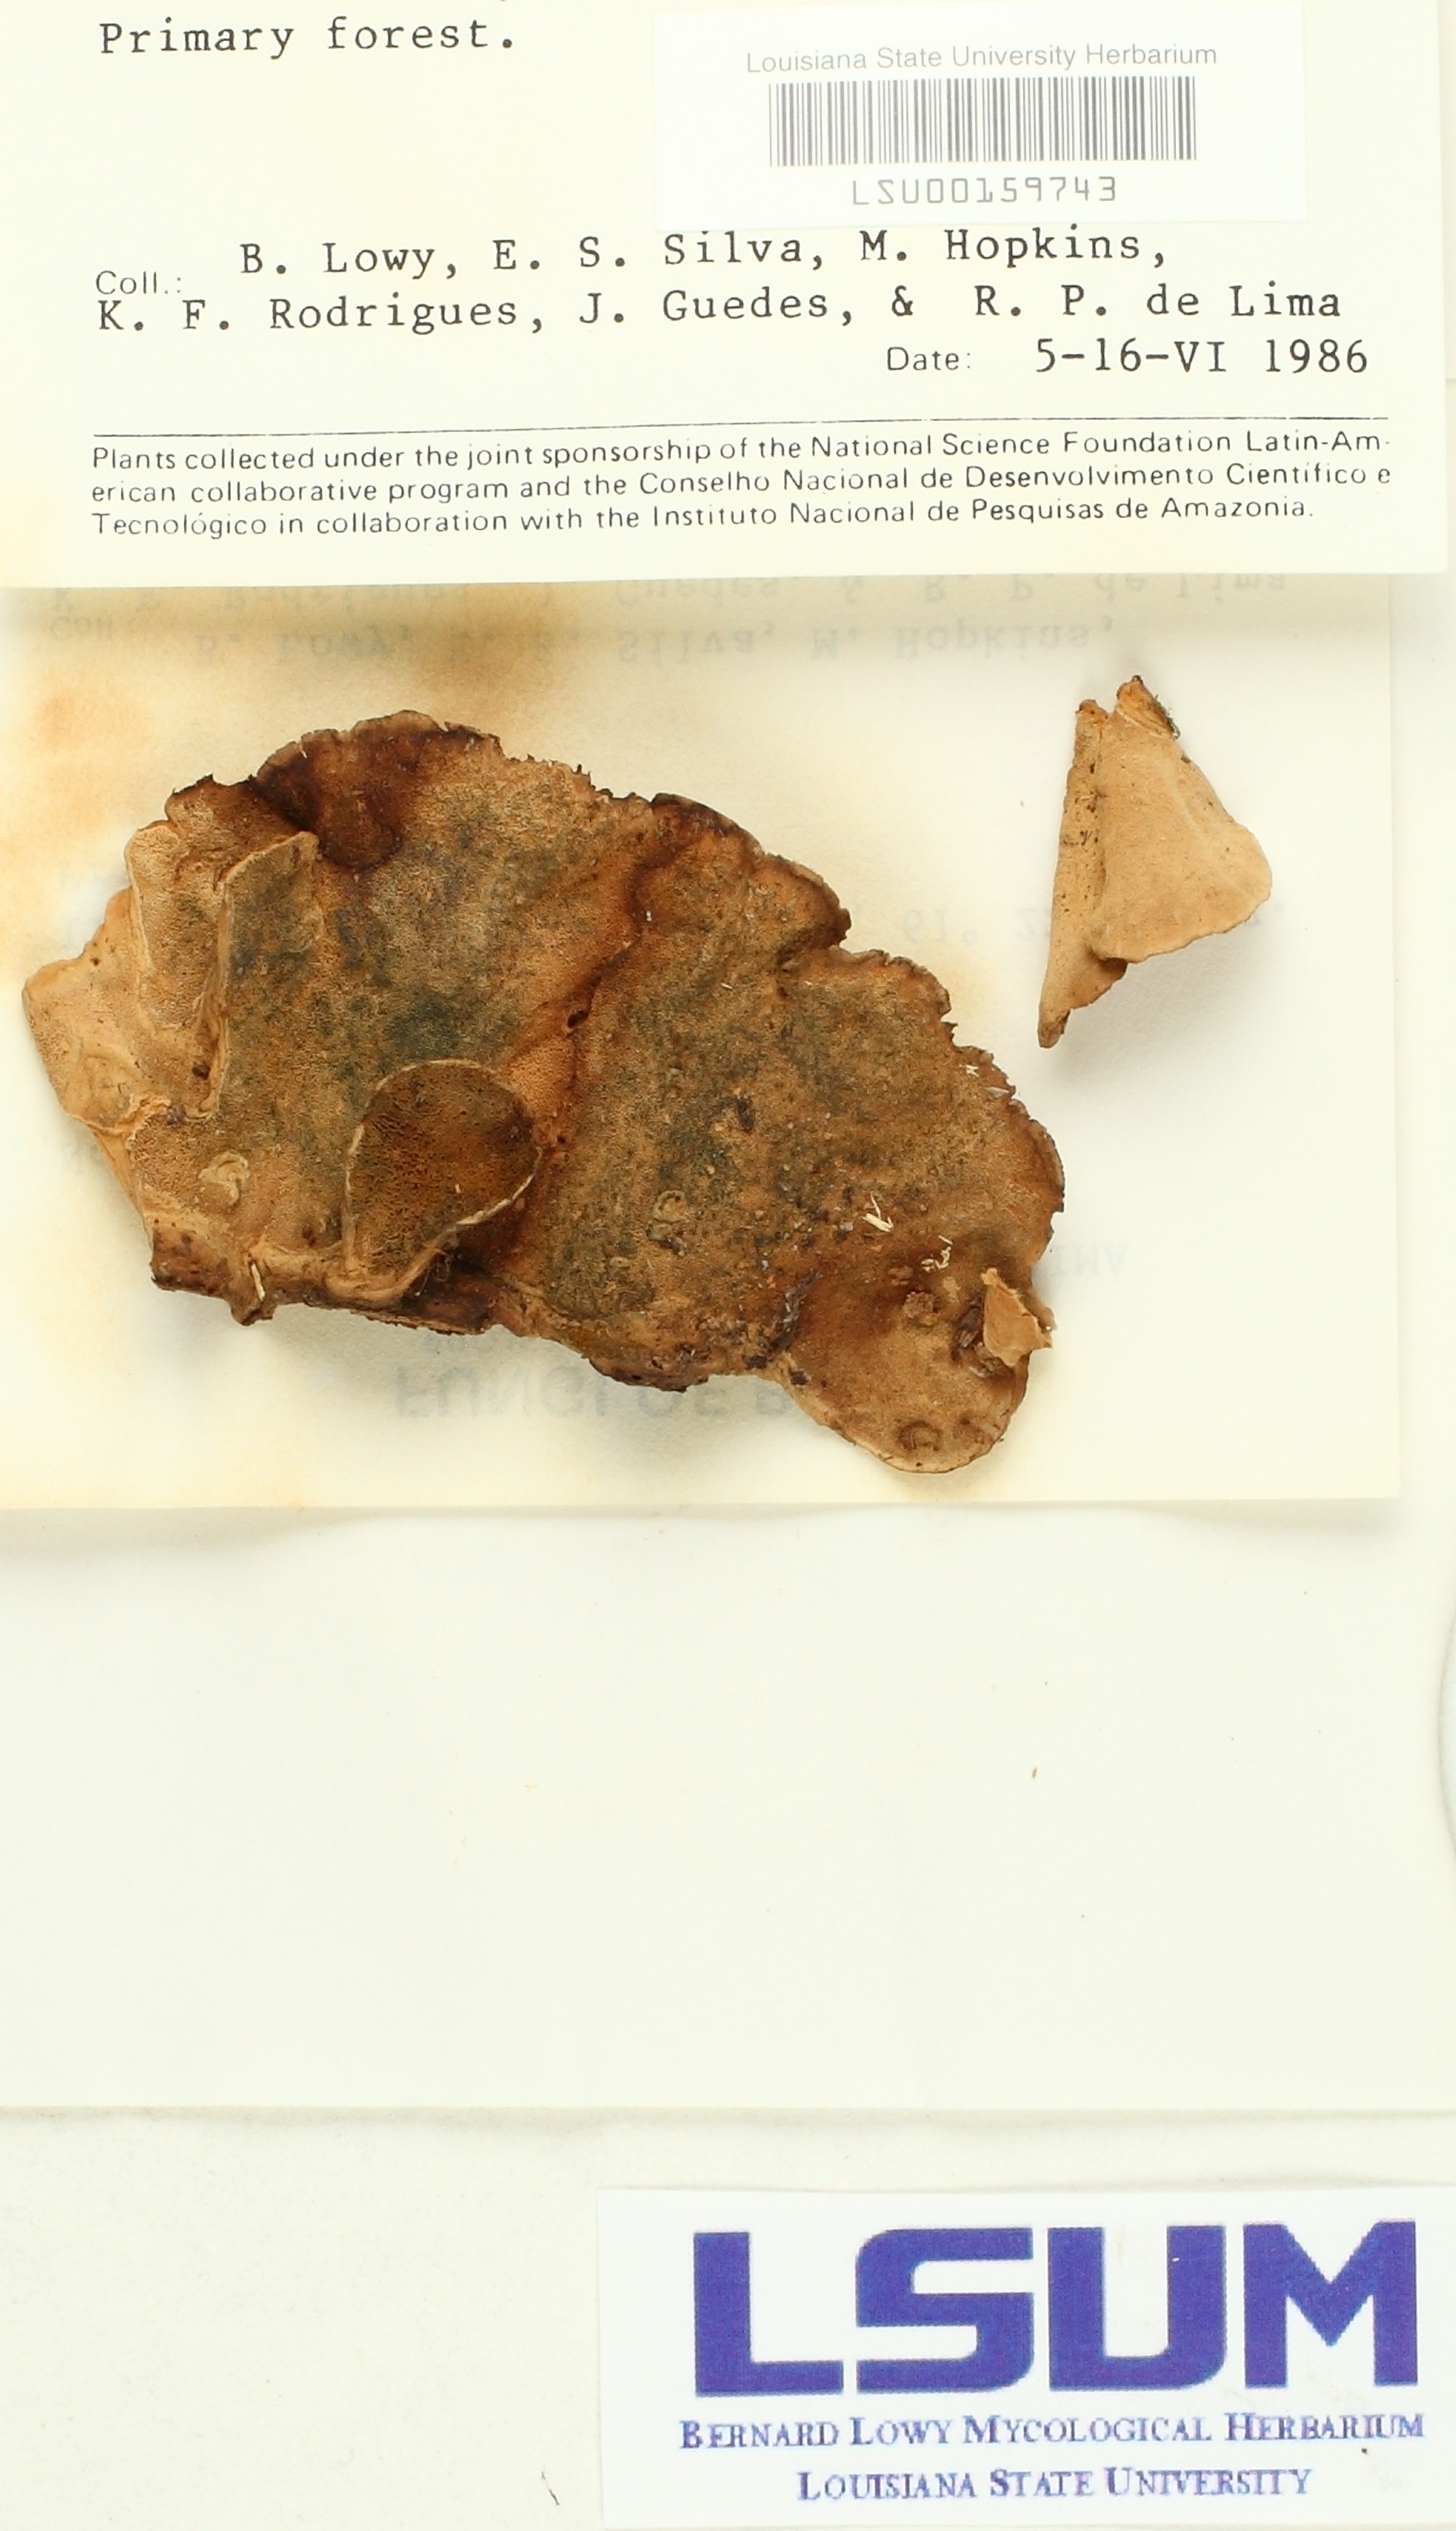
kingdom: Fungi
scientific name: Fungi
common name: Fungi
